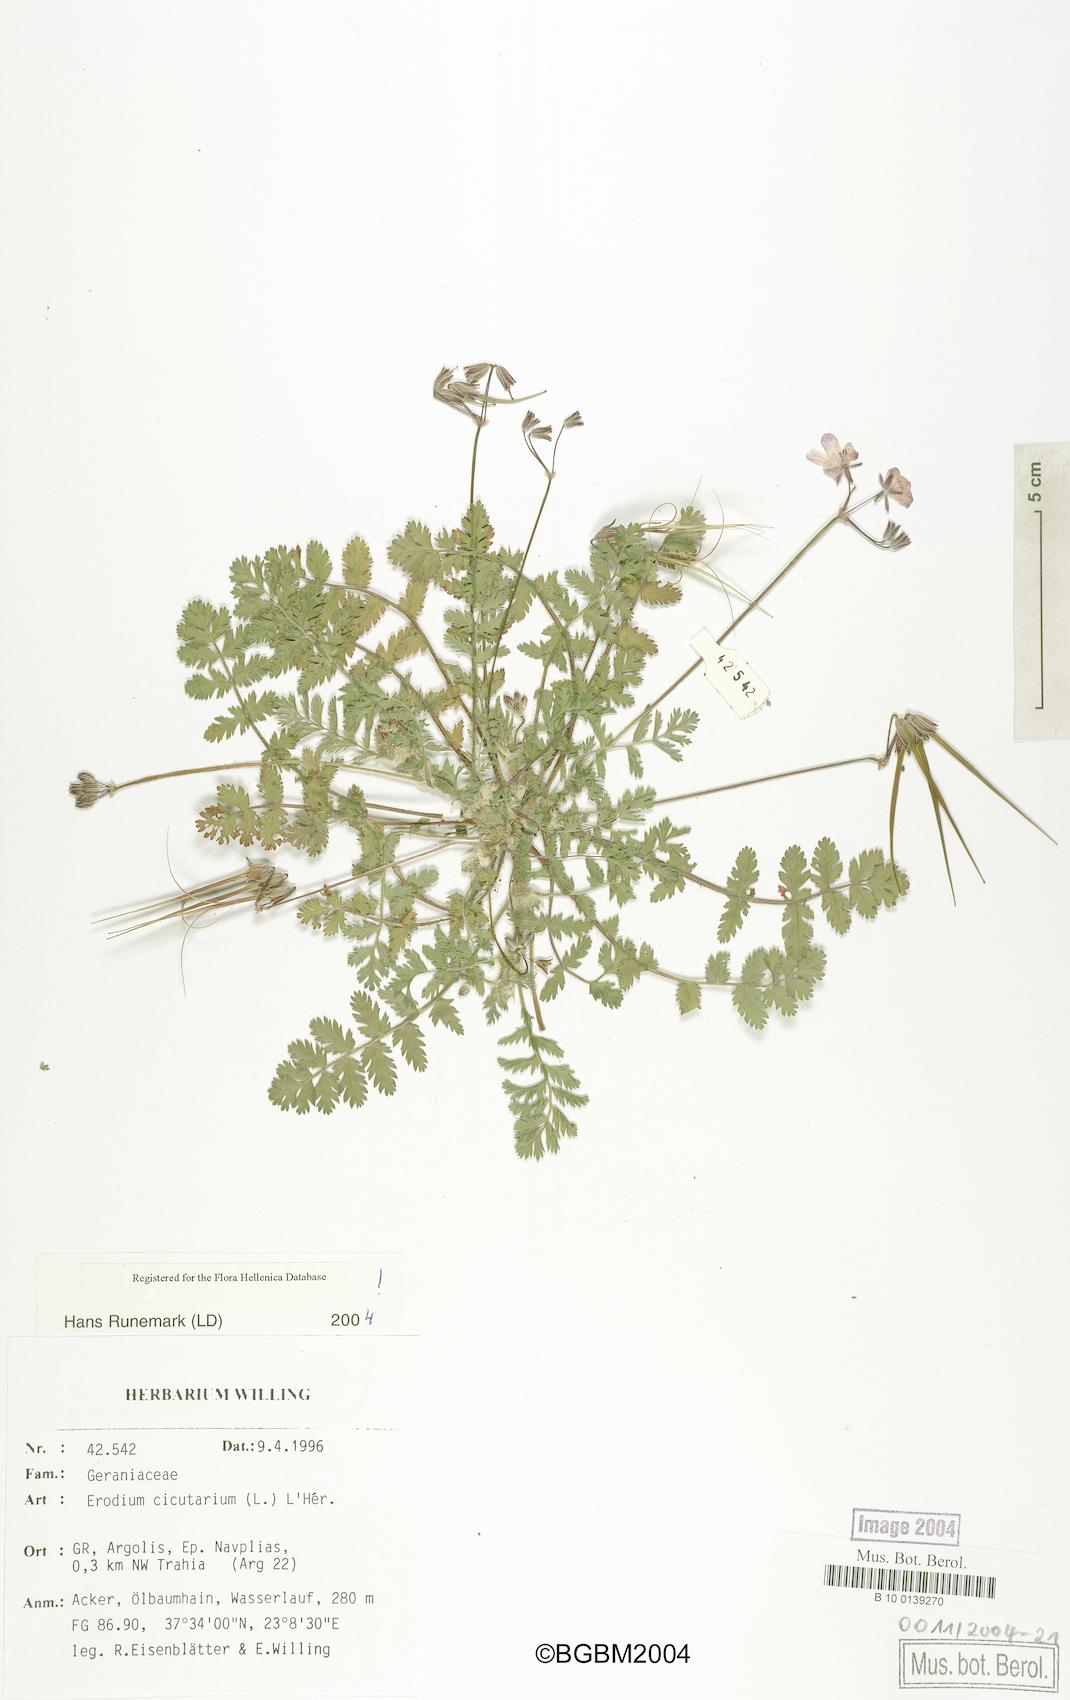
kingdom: Plantae
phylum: Tracheophyta
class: Magnoliopsida
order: Geraniales
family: Geraniaceae
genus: Erodium
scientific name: Erodium cicutarium
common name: Common stork's-bill
